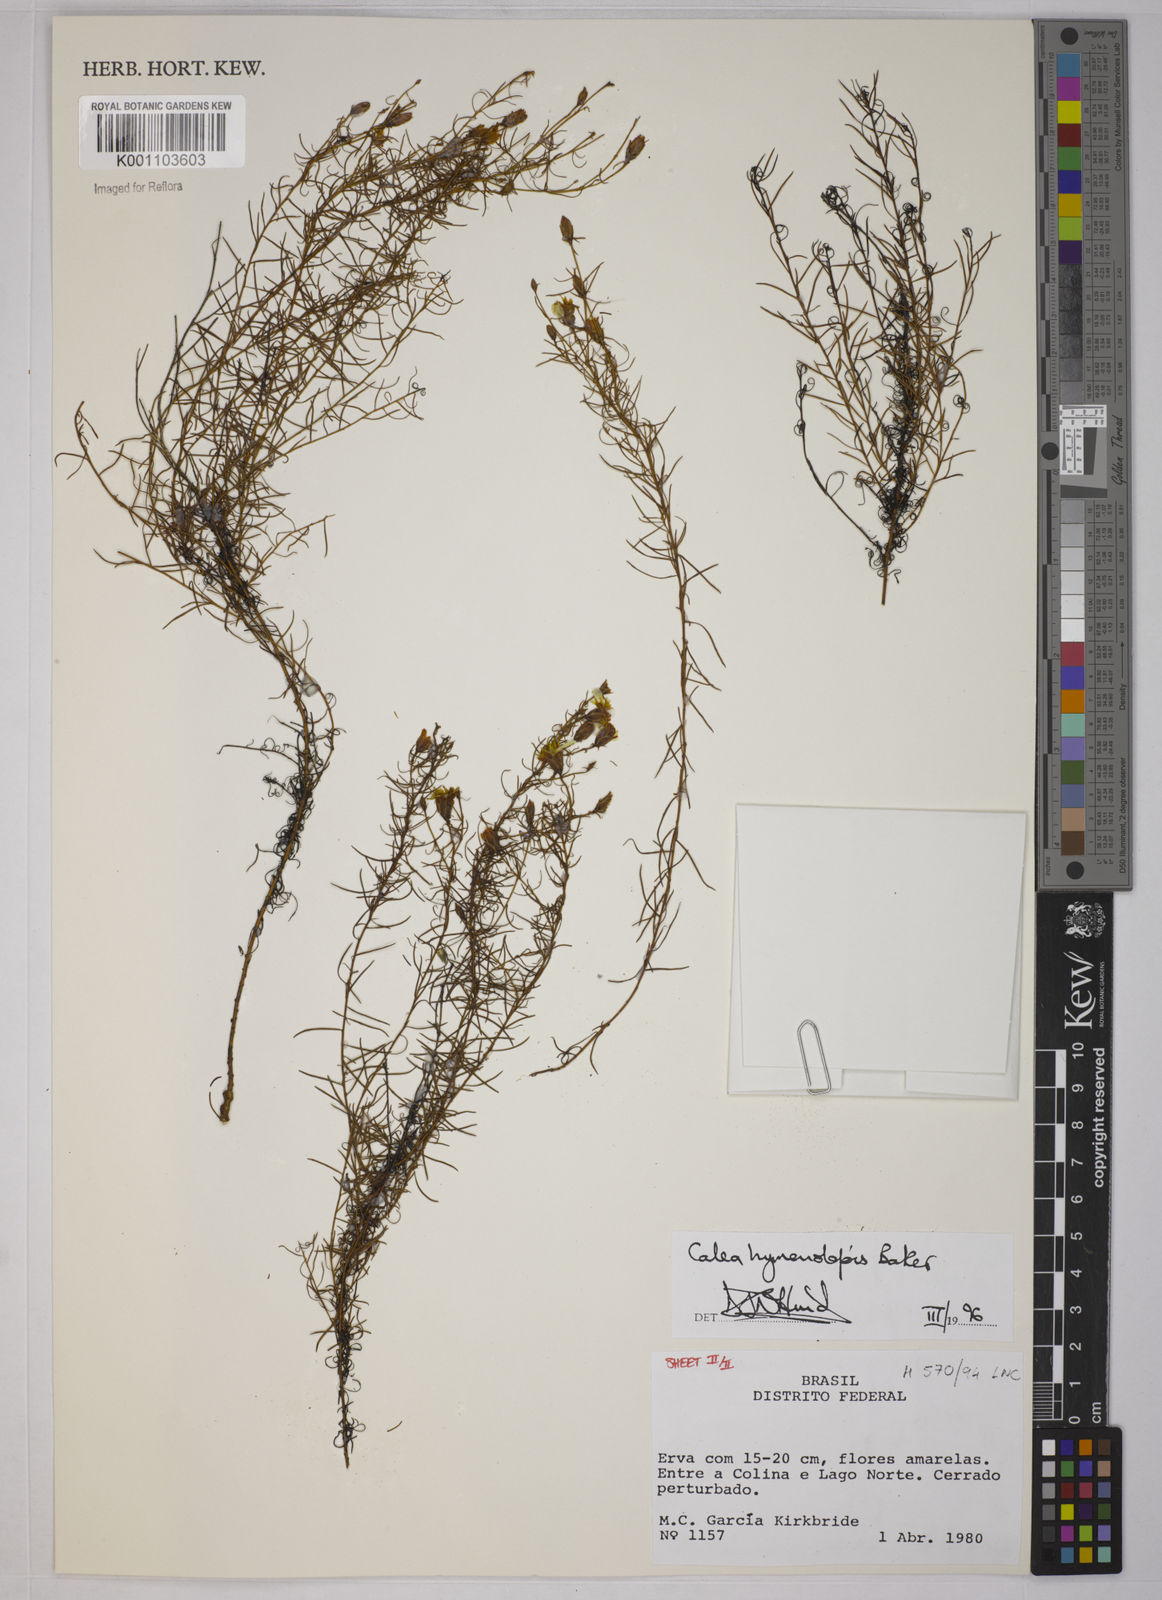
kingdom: Plantae
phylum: Tracheophyta
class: Magnoliopsida
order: Asterales
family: Asteraceae
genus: Calea
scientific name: Calea hymenolepis
